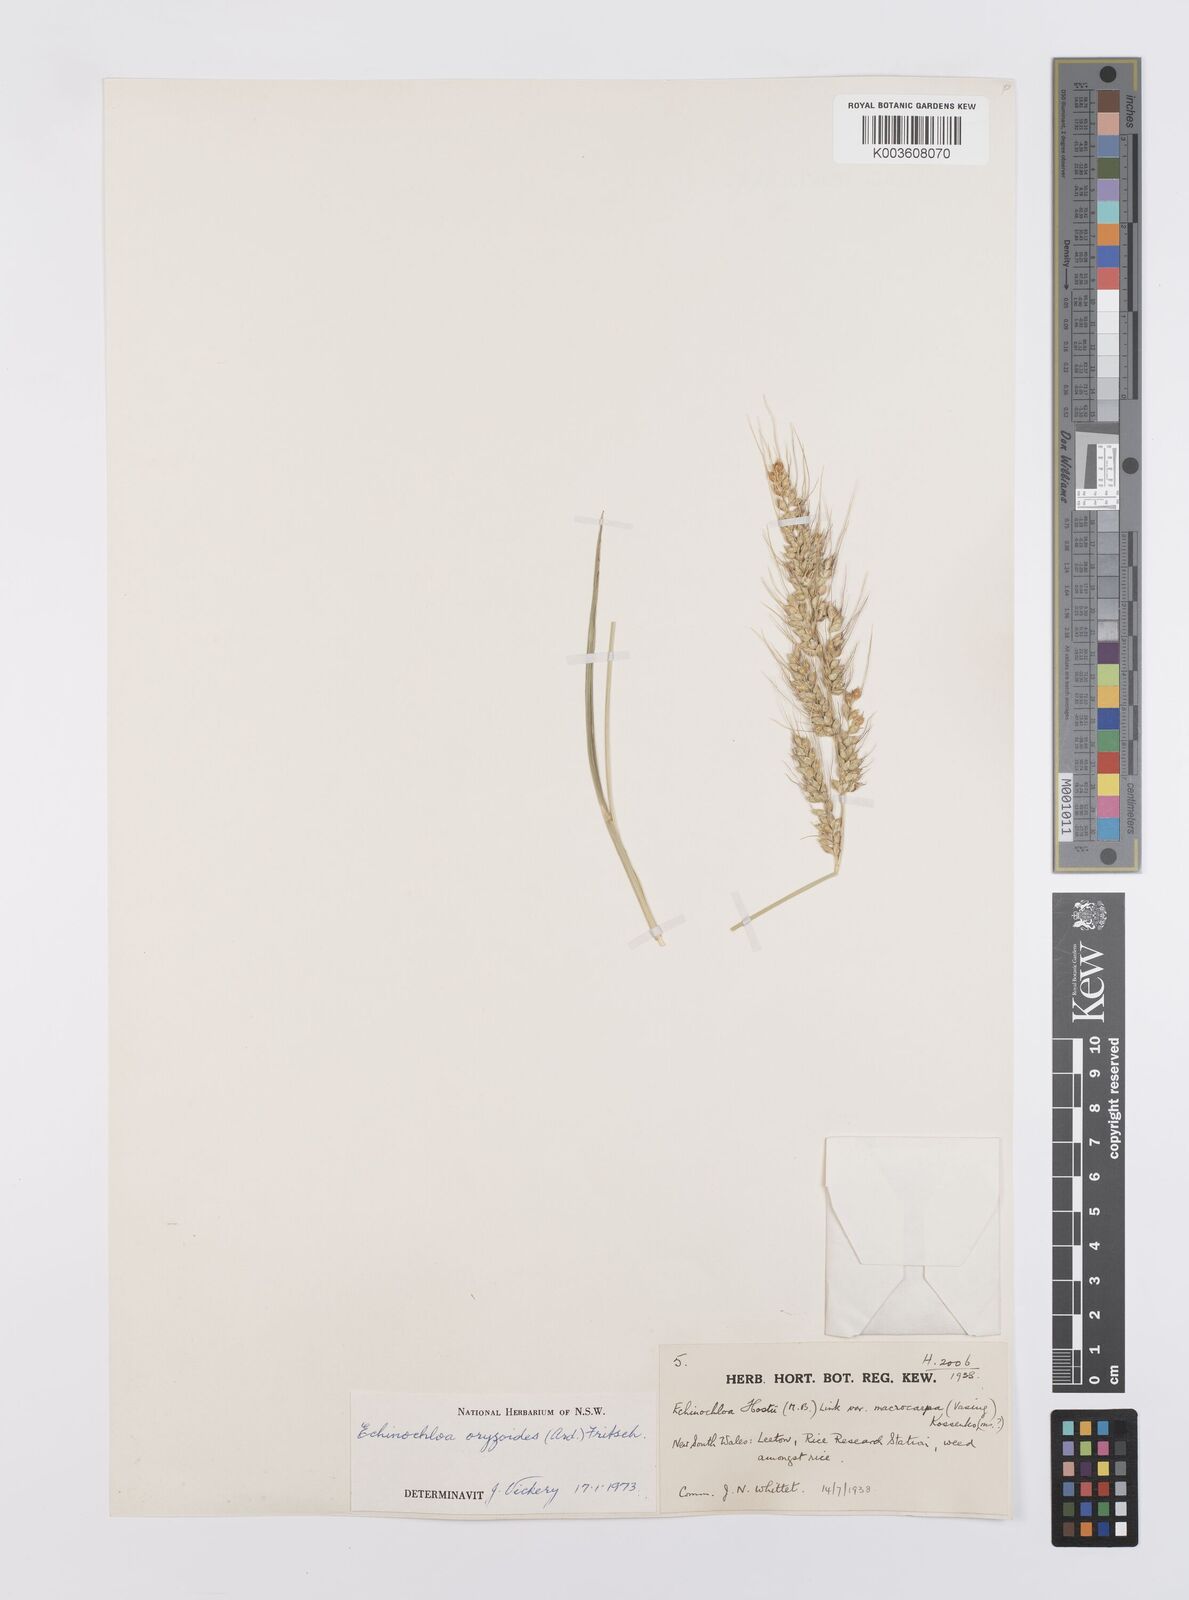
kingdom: Plantae
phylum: Tracheophyta
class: Liliopsida
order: Poales
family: Poaceae
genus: Echinochloa
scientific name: Echinochloa oryzoides
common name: Early water grass
